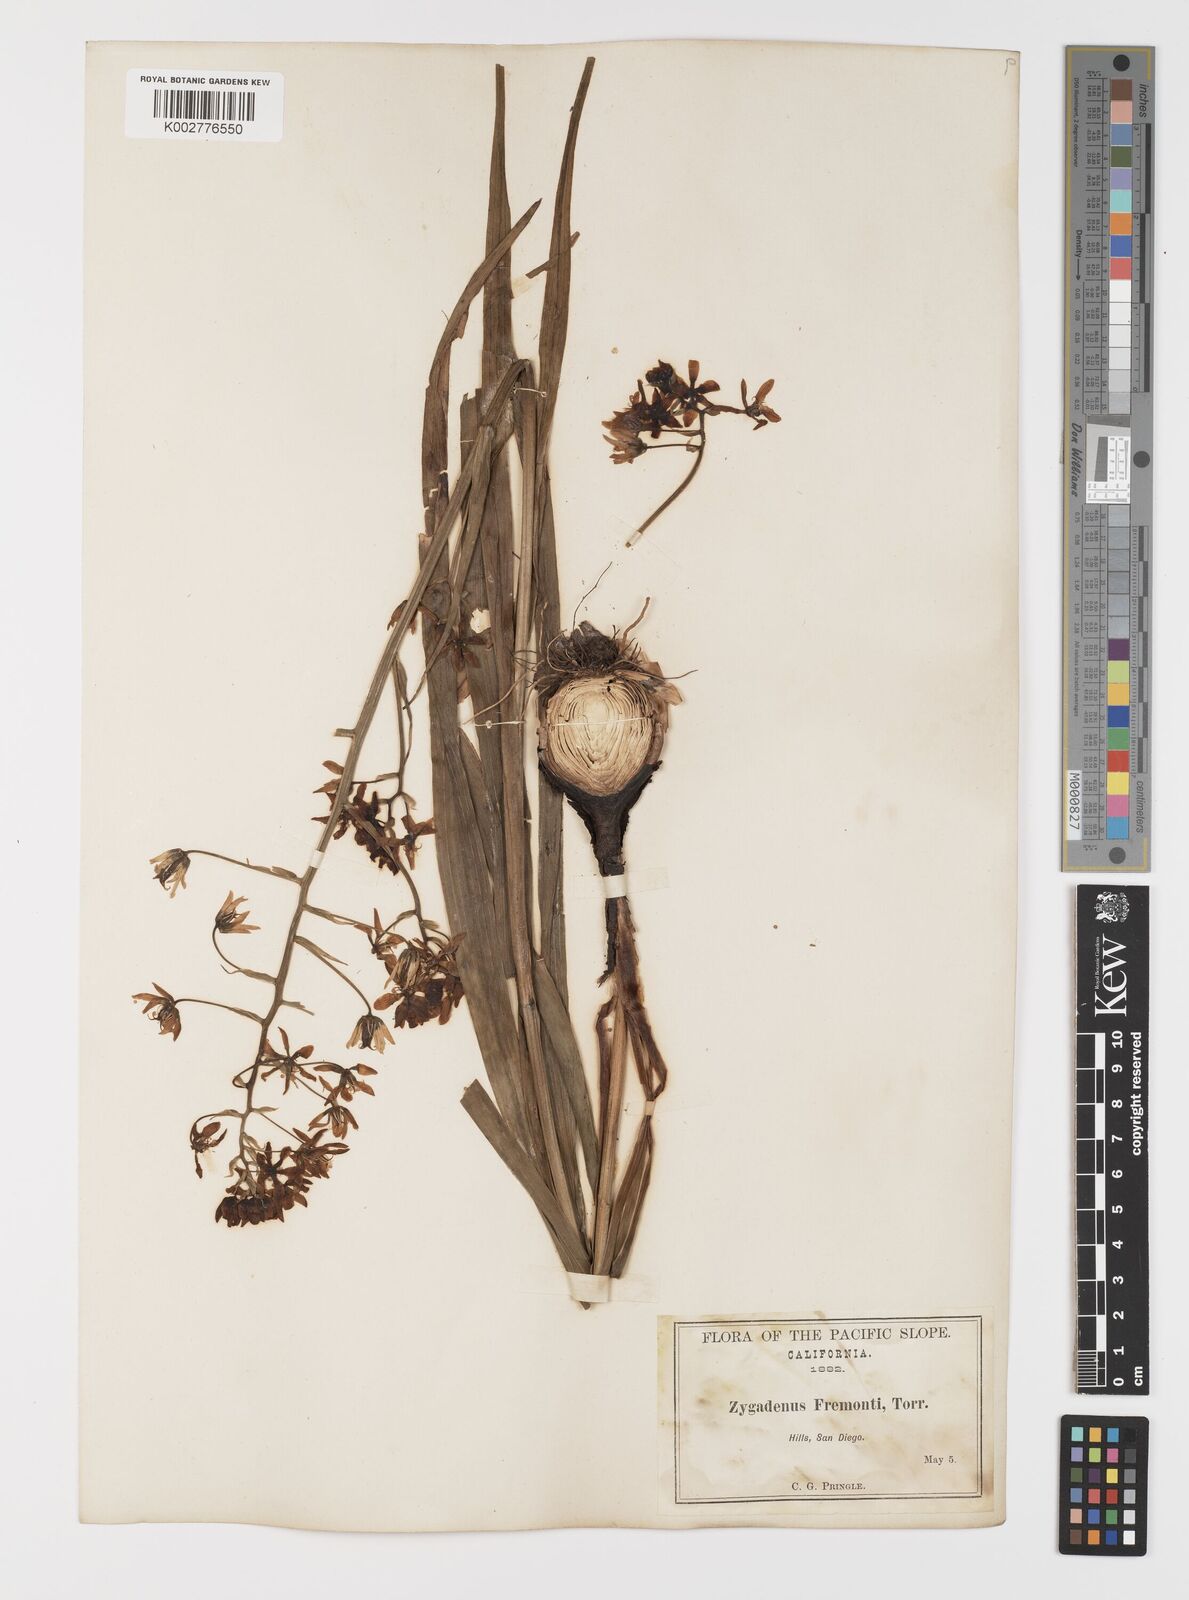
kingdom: Plantae
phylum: Tracheophyta
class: Liliopsida
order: Liliales
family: Melanthiaceae
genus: Toxicoscordion
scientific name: Toxicoscordion fremontii
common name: Fremont's death camas
